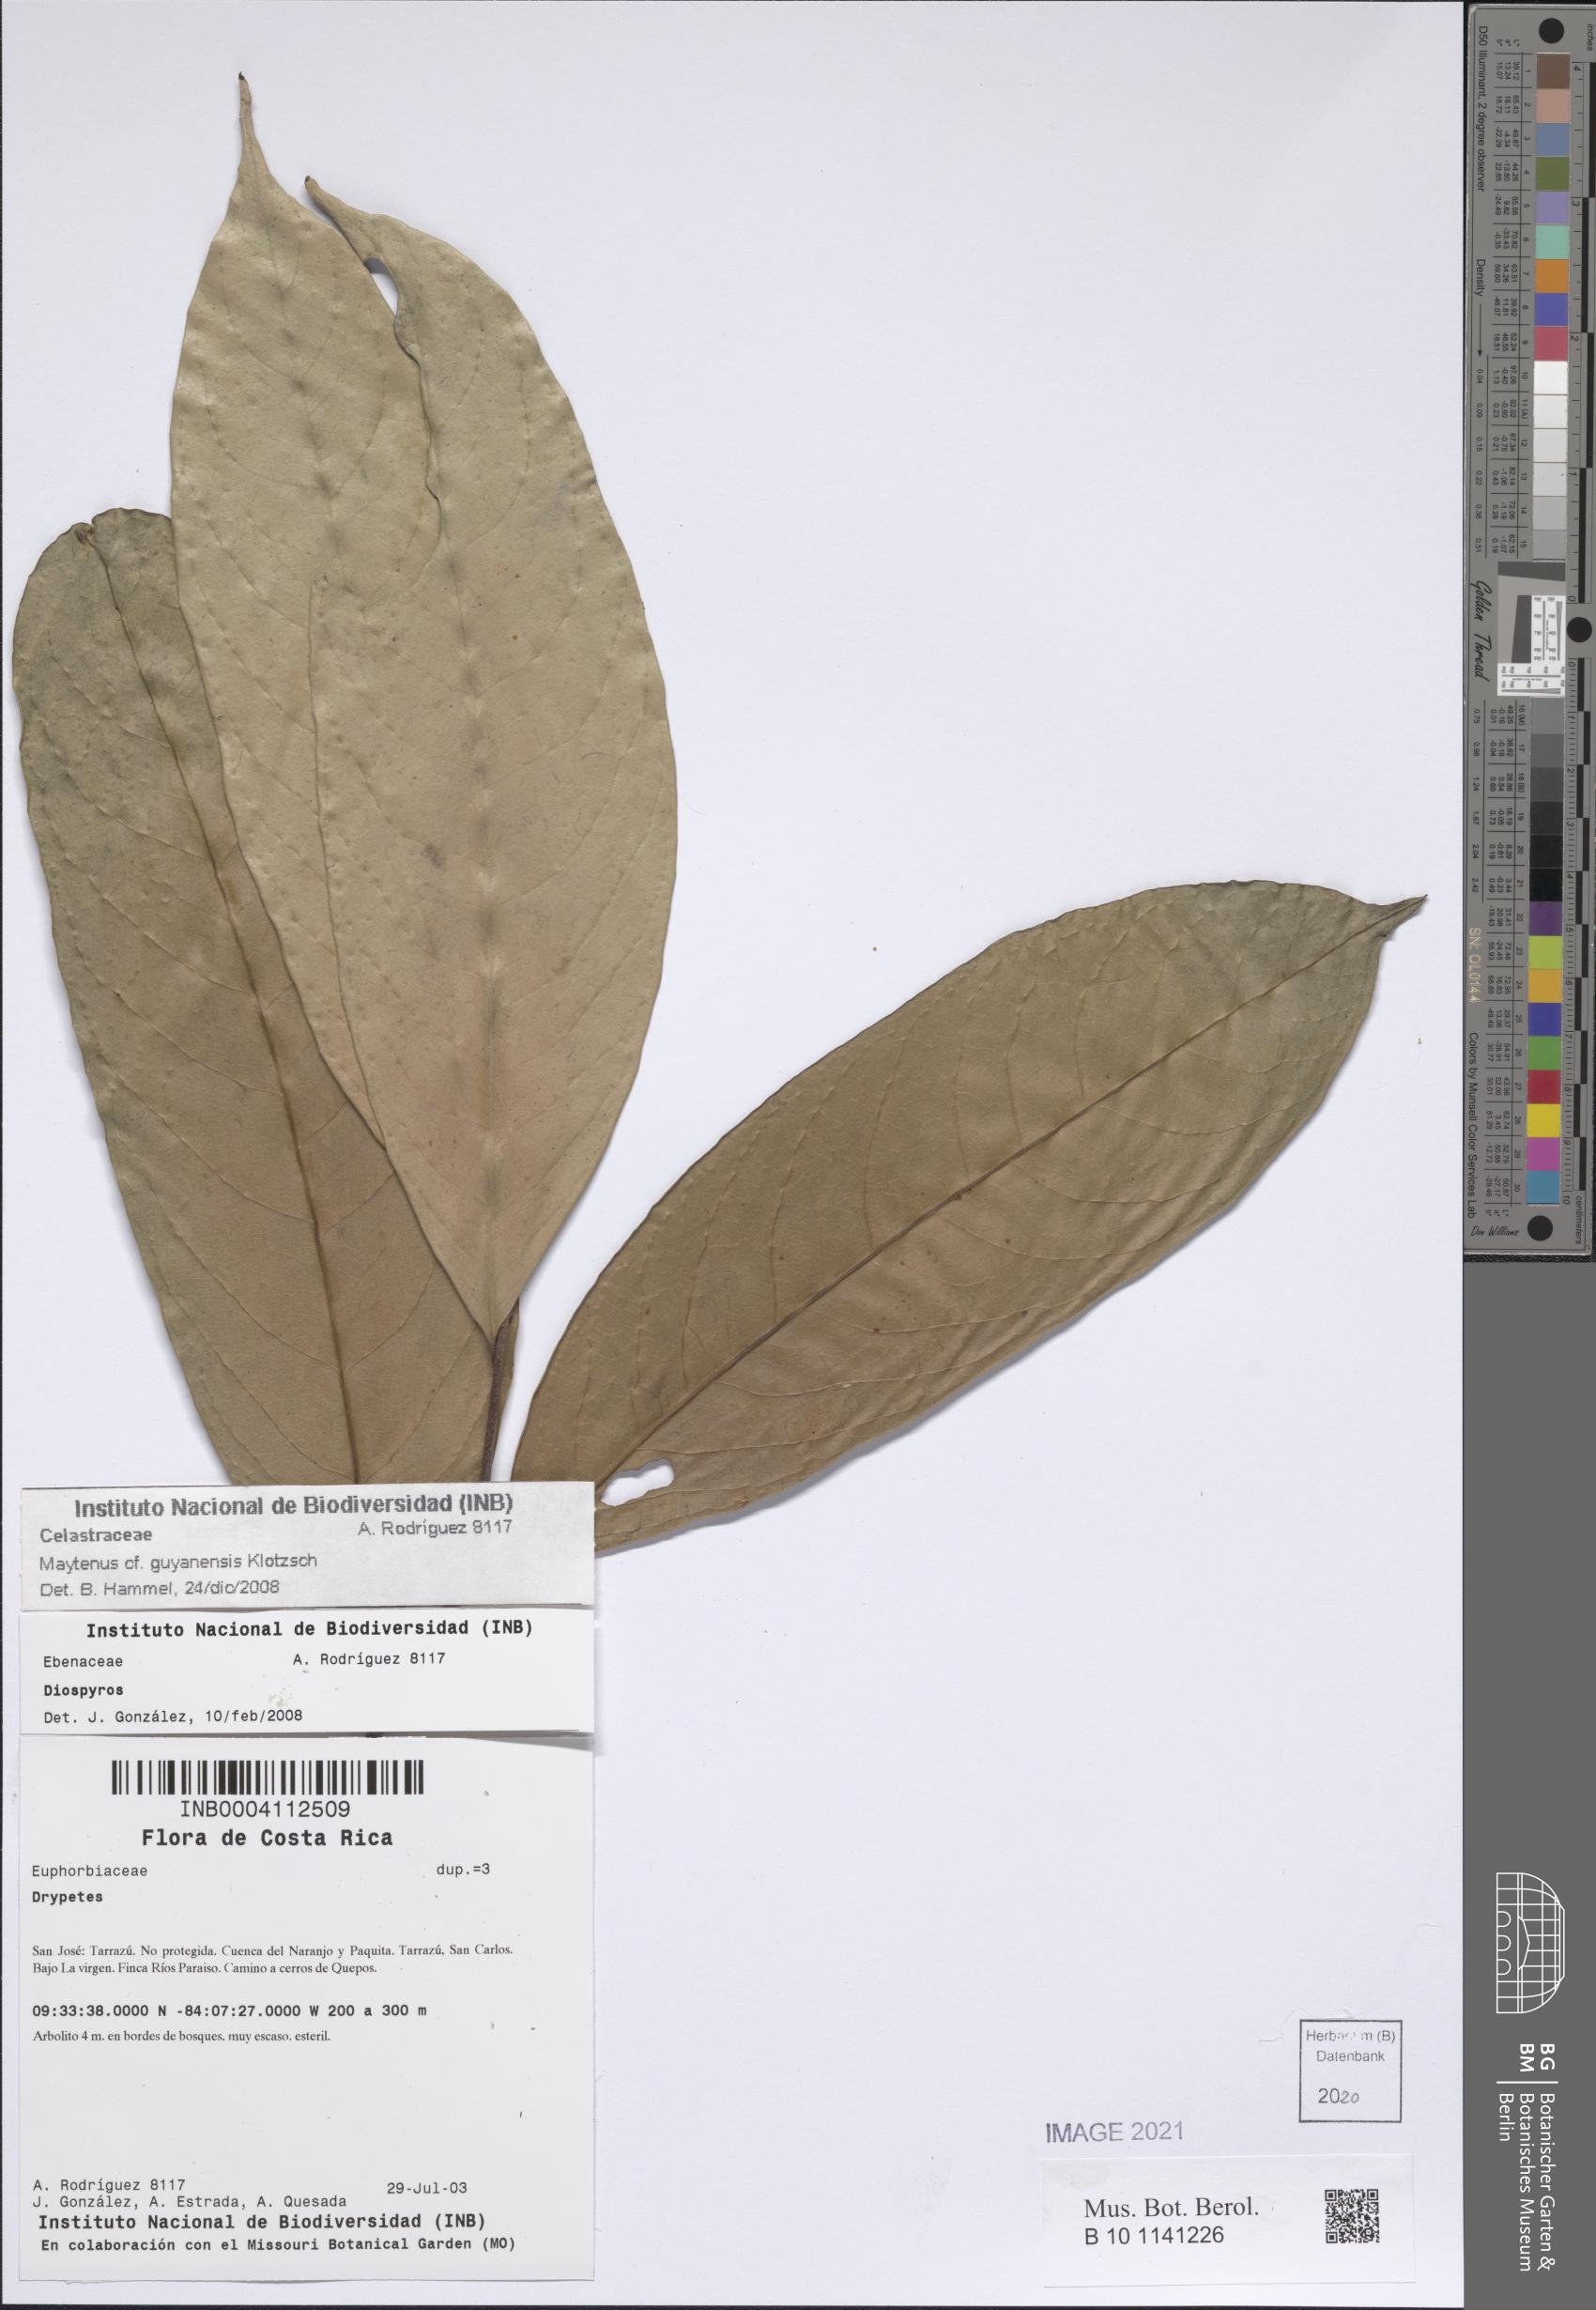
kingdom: Plantae
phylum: Tracheophyta
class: Magnoliopsida
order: Celastrales
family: Celastraceae
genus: Monteverdia
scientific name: Monteverdia guyanensis
